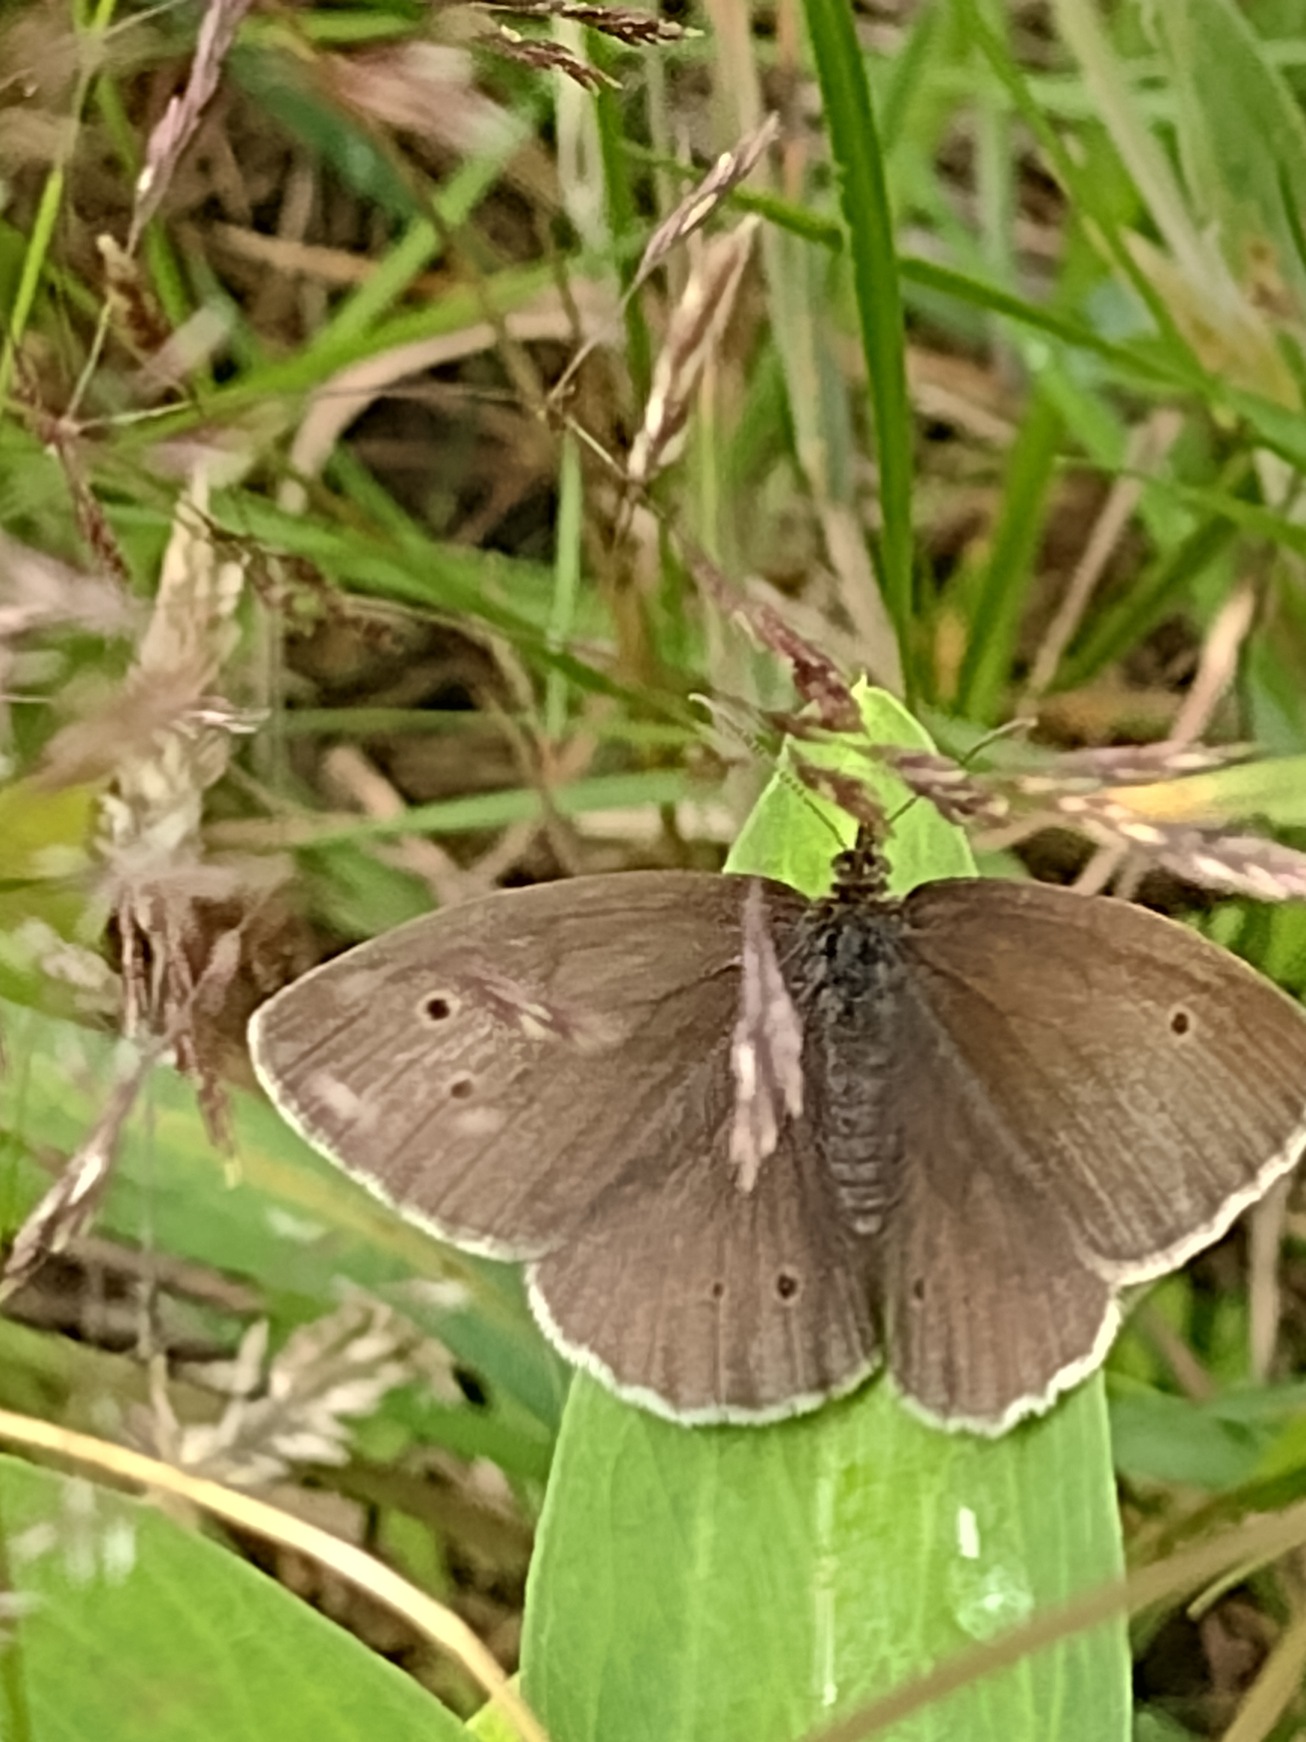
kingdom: Animalia
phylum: Arthropoda
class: Insecta
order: Lepidoptera
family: Nymphalidae
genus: Aphantopus
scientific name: Aphantopus hyperantus
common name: Engrandøje
